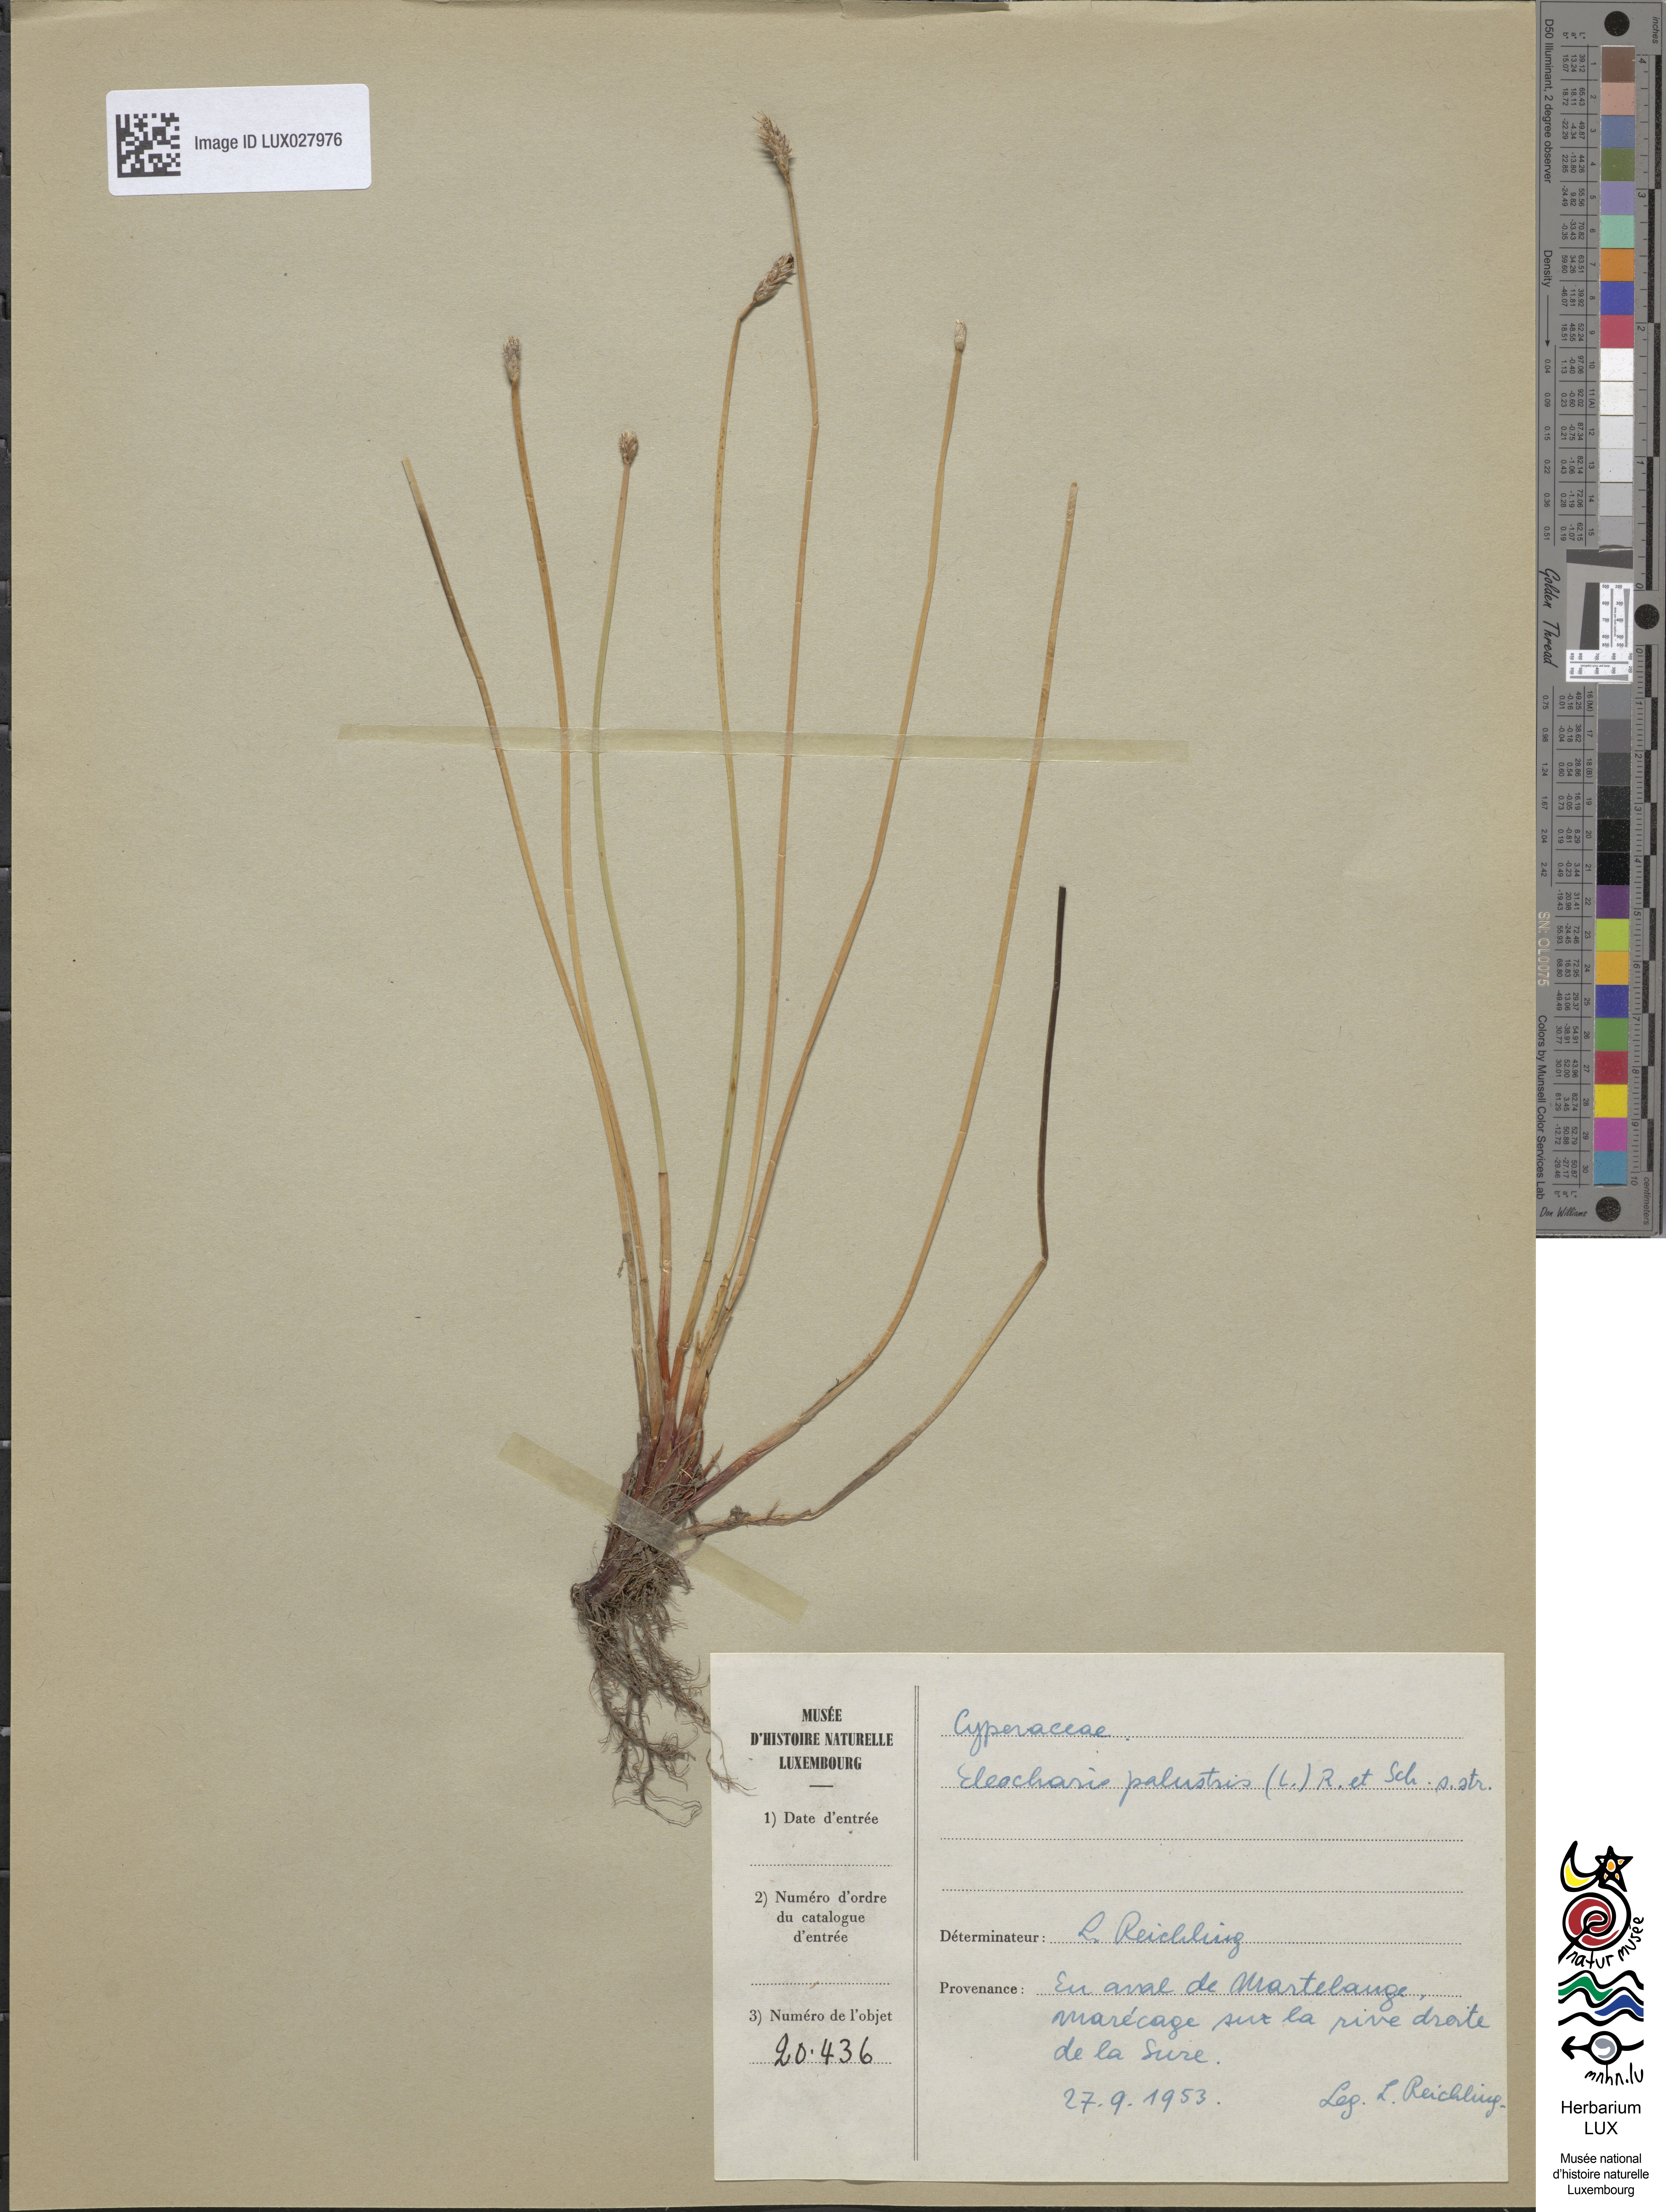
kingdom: Plantae
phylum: Tracheophyta
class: Liliopsida
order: Poales
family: Cyperaceae
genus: Eleocharis
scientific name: Eleocharis palustris
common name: Common spike-rush
